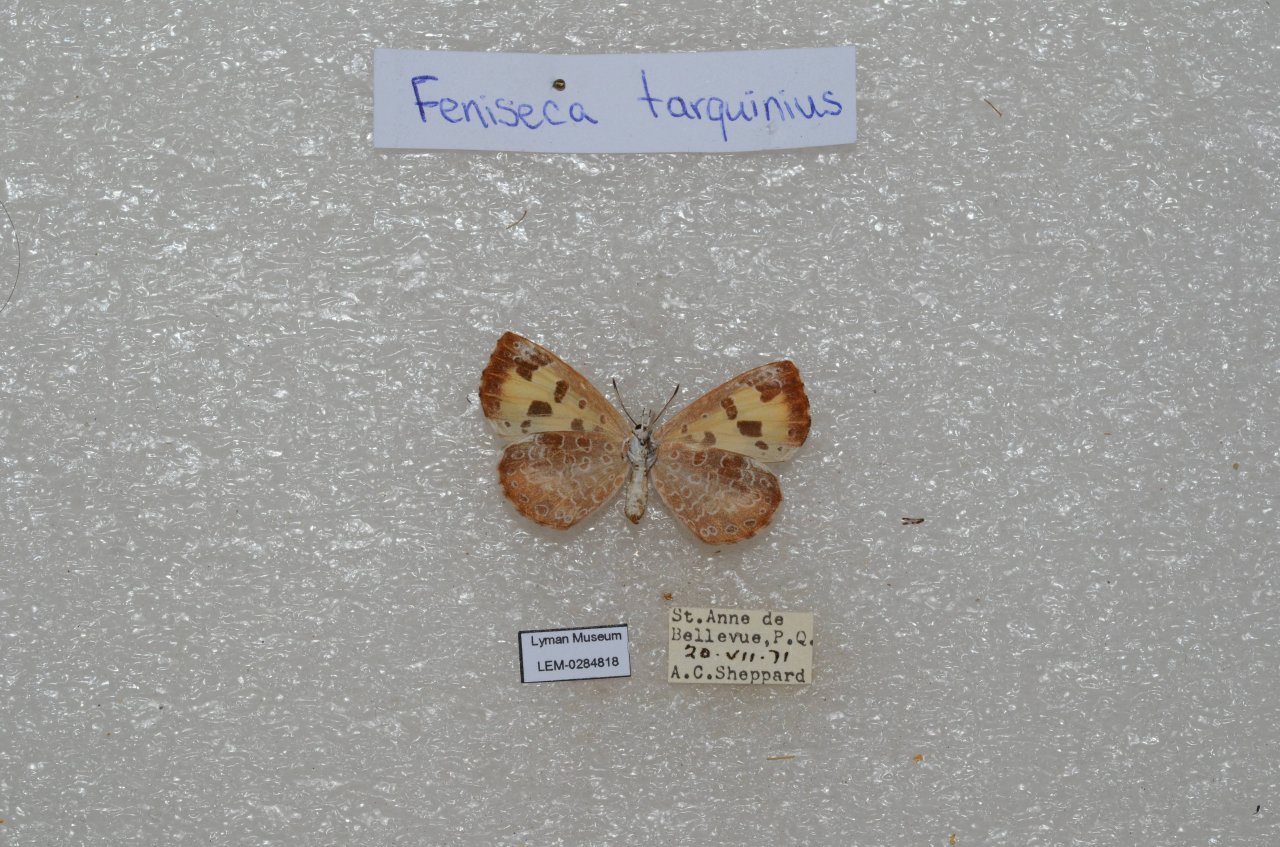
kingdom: Animalia
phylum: Arthropoda
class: Insecta
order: Lepidoptera
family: Lycaenidae
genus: Feniseca
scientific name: Feniseca tarquinius
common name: Harvester
